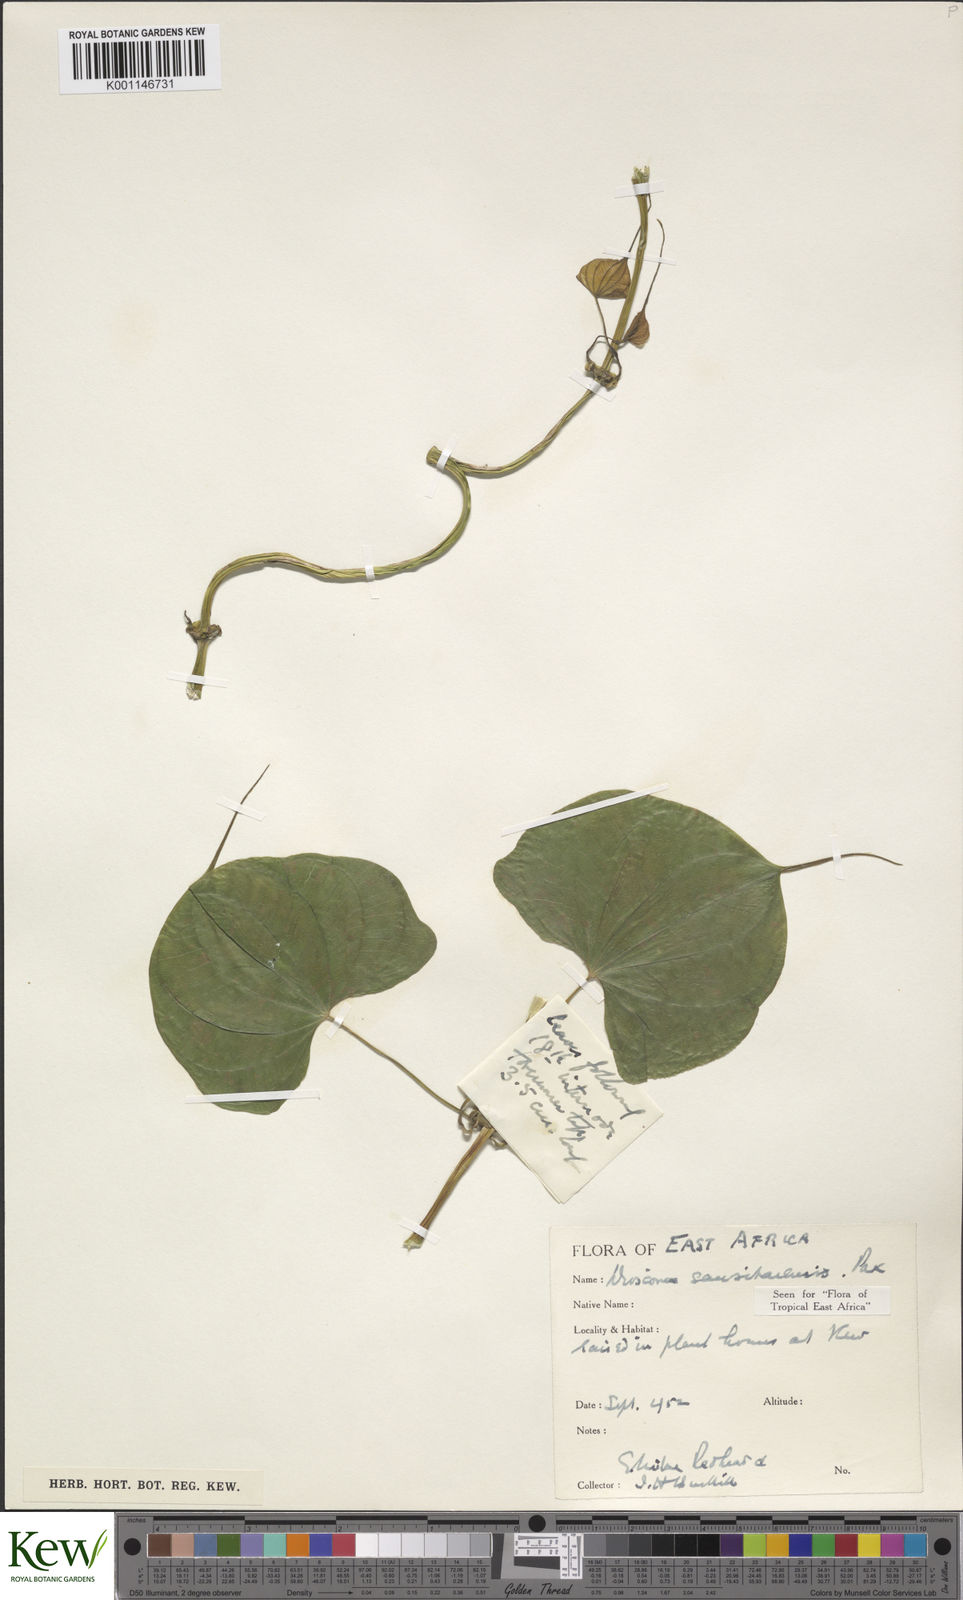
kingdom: Plantae
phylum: Tracheophyta
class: Liliopsida
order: Dioscoreales
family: Dioscoreaceae
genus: Dioscorea
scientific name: Dioscorea sansibarensis
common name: Zanzibar yam
